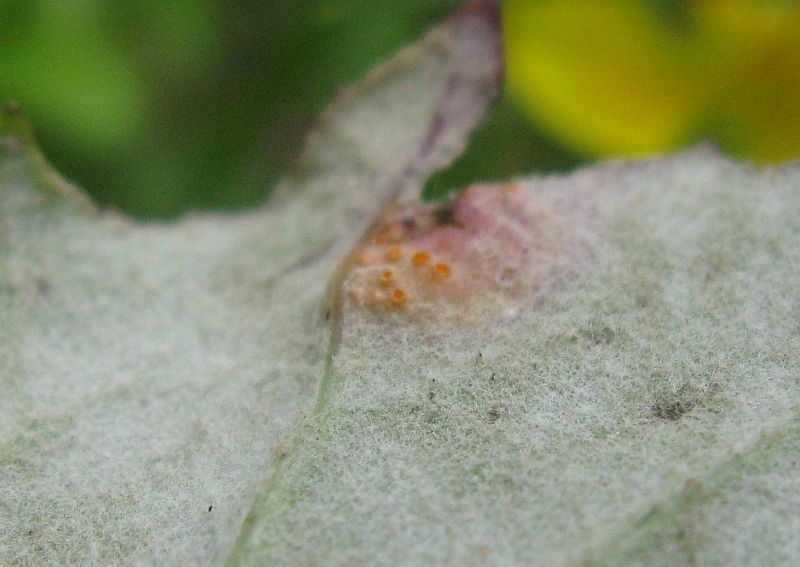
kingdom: Fungi
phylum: Basidiomycota
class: Pucciniomycetes
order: Pucciniales
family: Pucciniaceae
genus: Puccinia
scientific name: Puccinia poarum
